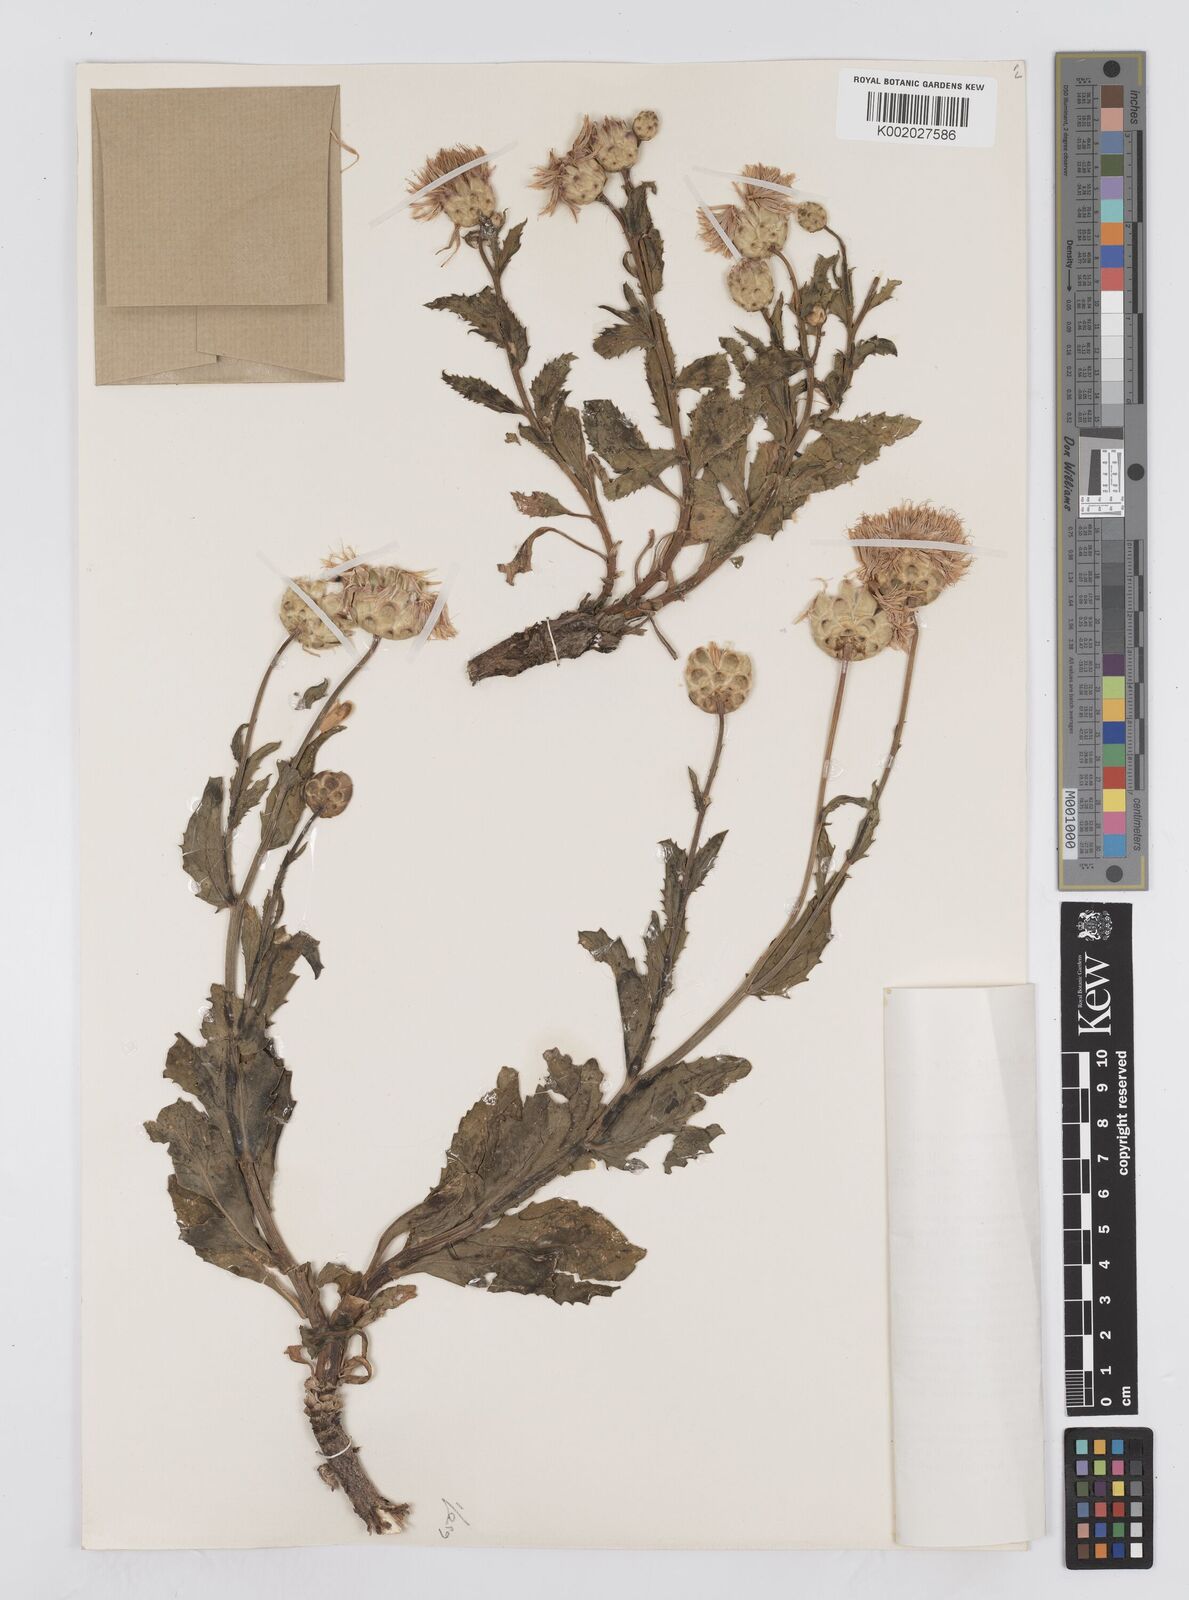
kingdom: Plantae
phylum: Tracheophyta
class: Magnoliopsida
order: Asterales
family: Asteraceae
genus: Plagiobasis
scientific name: Plagiobasis centauroides
